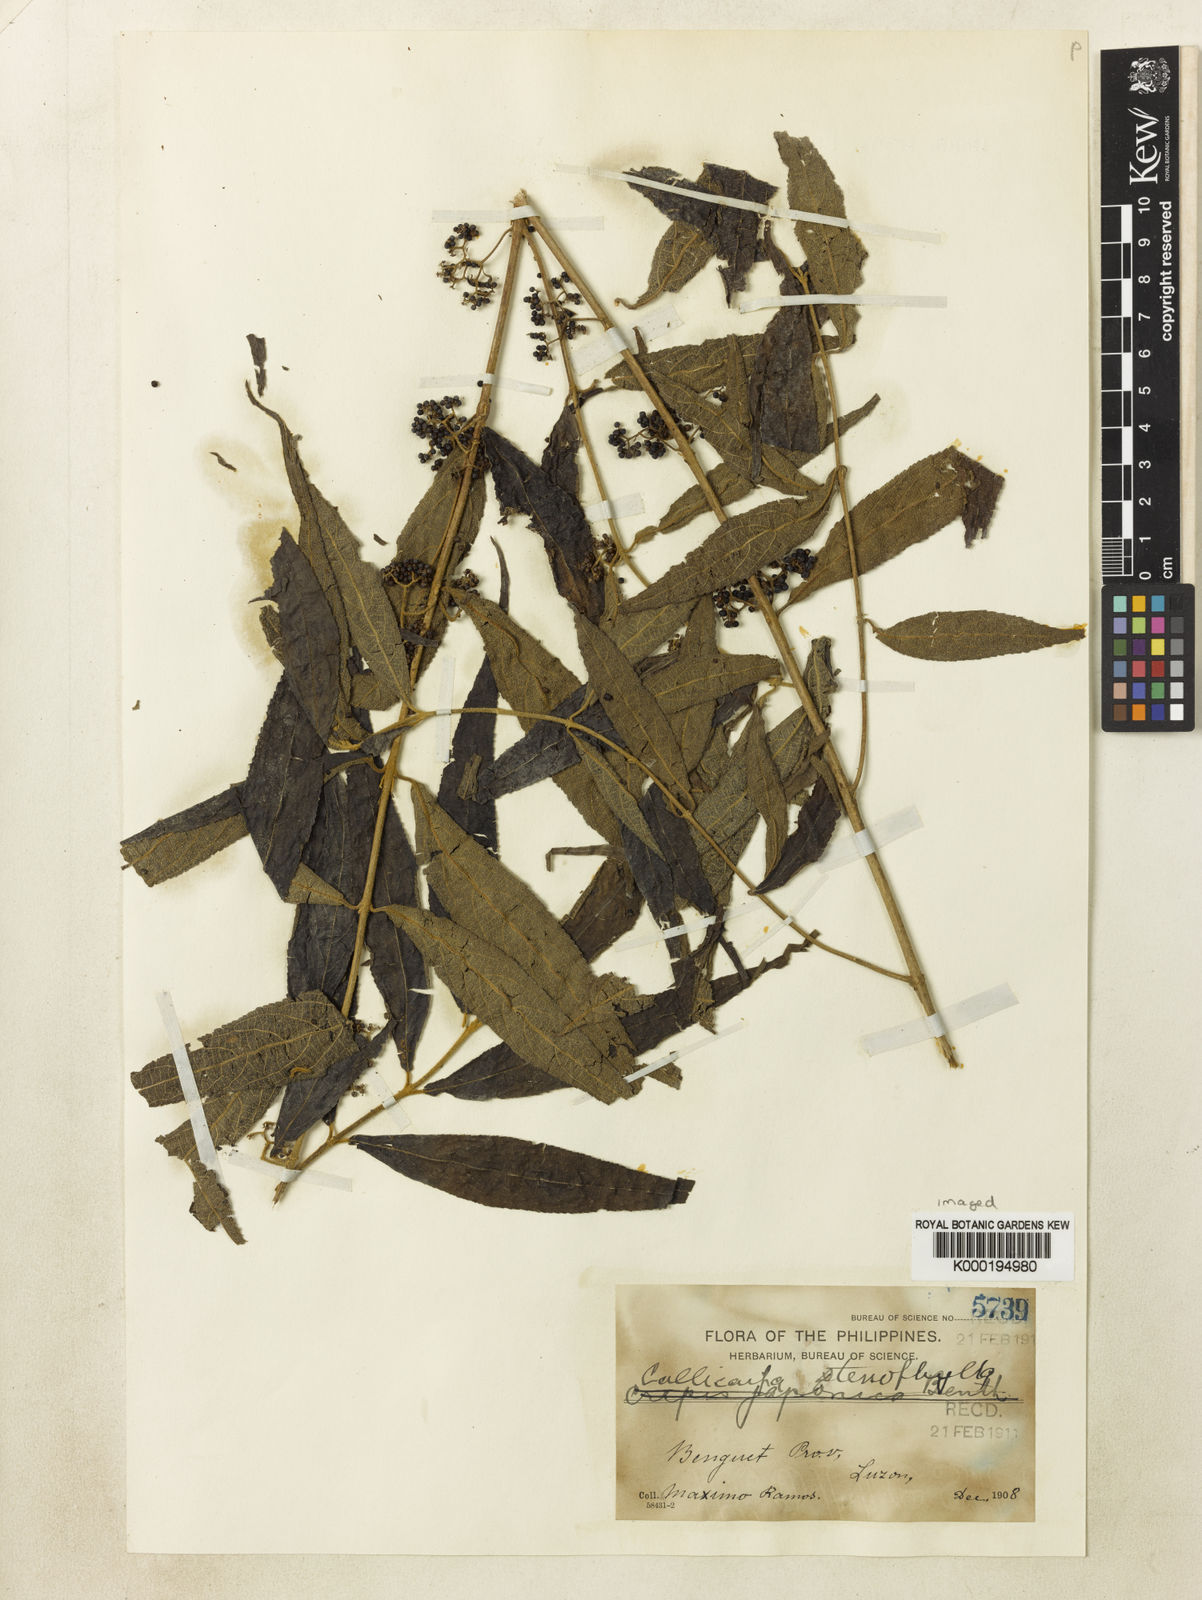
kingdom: Plantae
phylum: Tracheophyta
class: Magnoliopsida
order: Lamiales
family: Lamiaceae
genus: Callicarpa
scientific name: Callicarpa caudata
